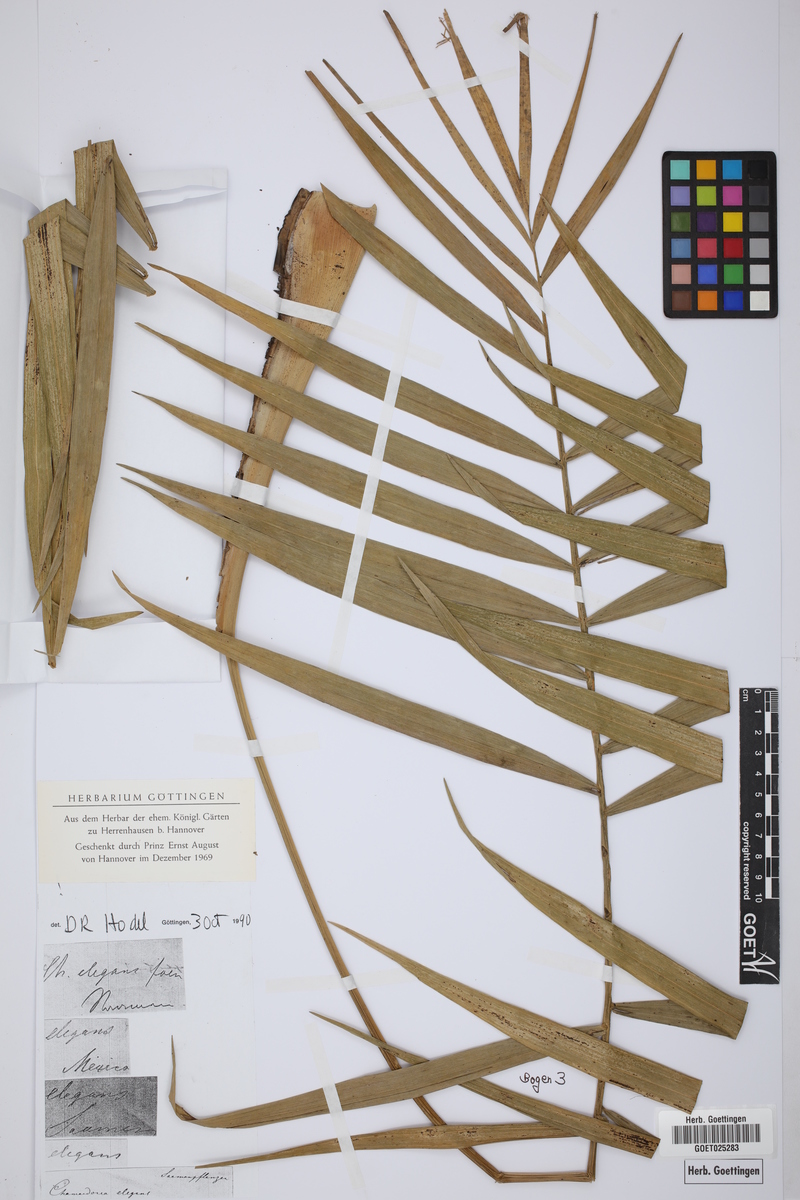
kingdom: Plantae
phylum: Tracheophyta
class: Liliopsida
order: Arecales
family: Arecaceae
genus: Chamaedorea
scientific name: Chamaedorea elegans
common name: Good-luck palm
